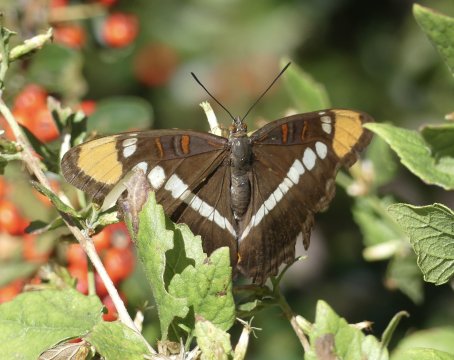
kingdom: Animalia
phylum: Arthropoda
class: Insecta
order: Lepidoptera
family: Nymphalidae
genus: Limenitis
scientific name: Limenitis bredowii
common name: Arizona Sister
